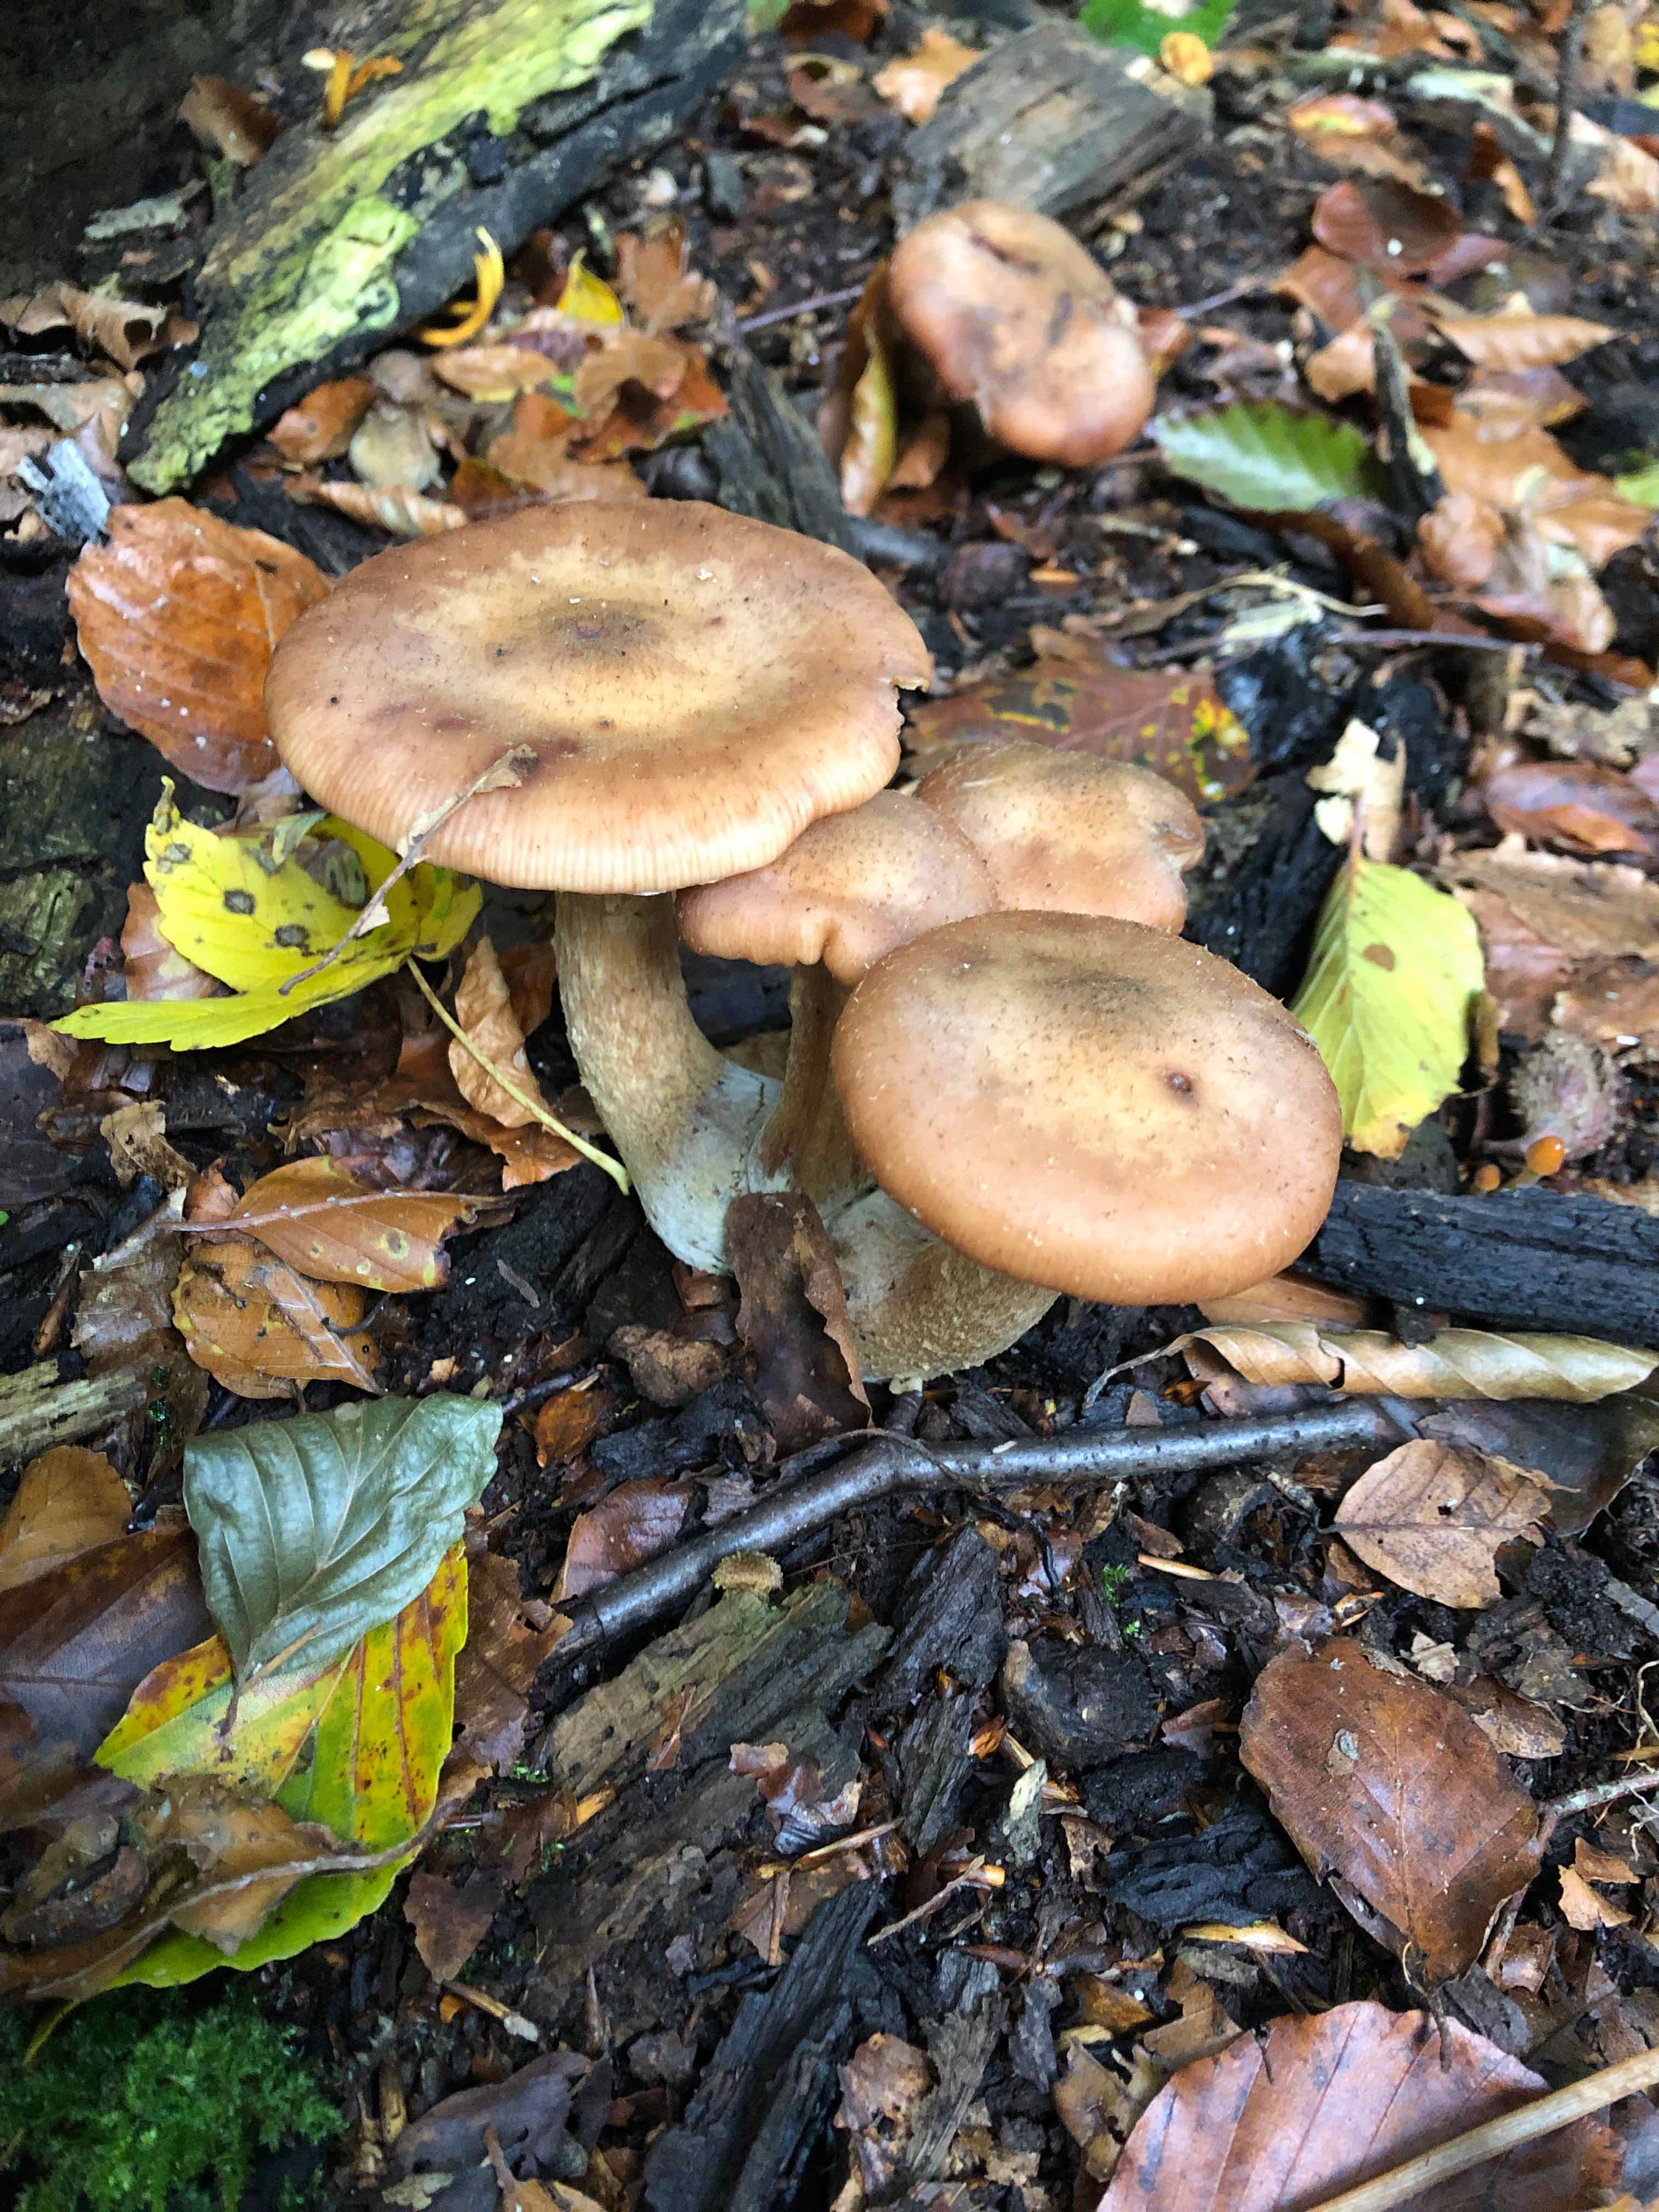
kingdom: Fungi
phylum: Basidiomycota
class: Agaricomycetes
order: Agaricales
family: Physalacriaceae
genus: Armillaria
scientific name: Armillaria lutea
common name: køllestokket honningsvamp
